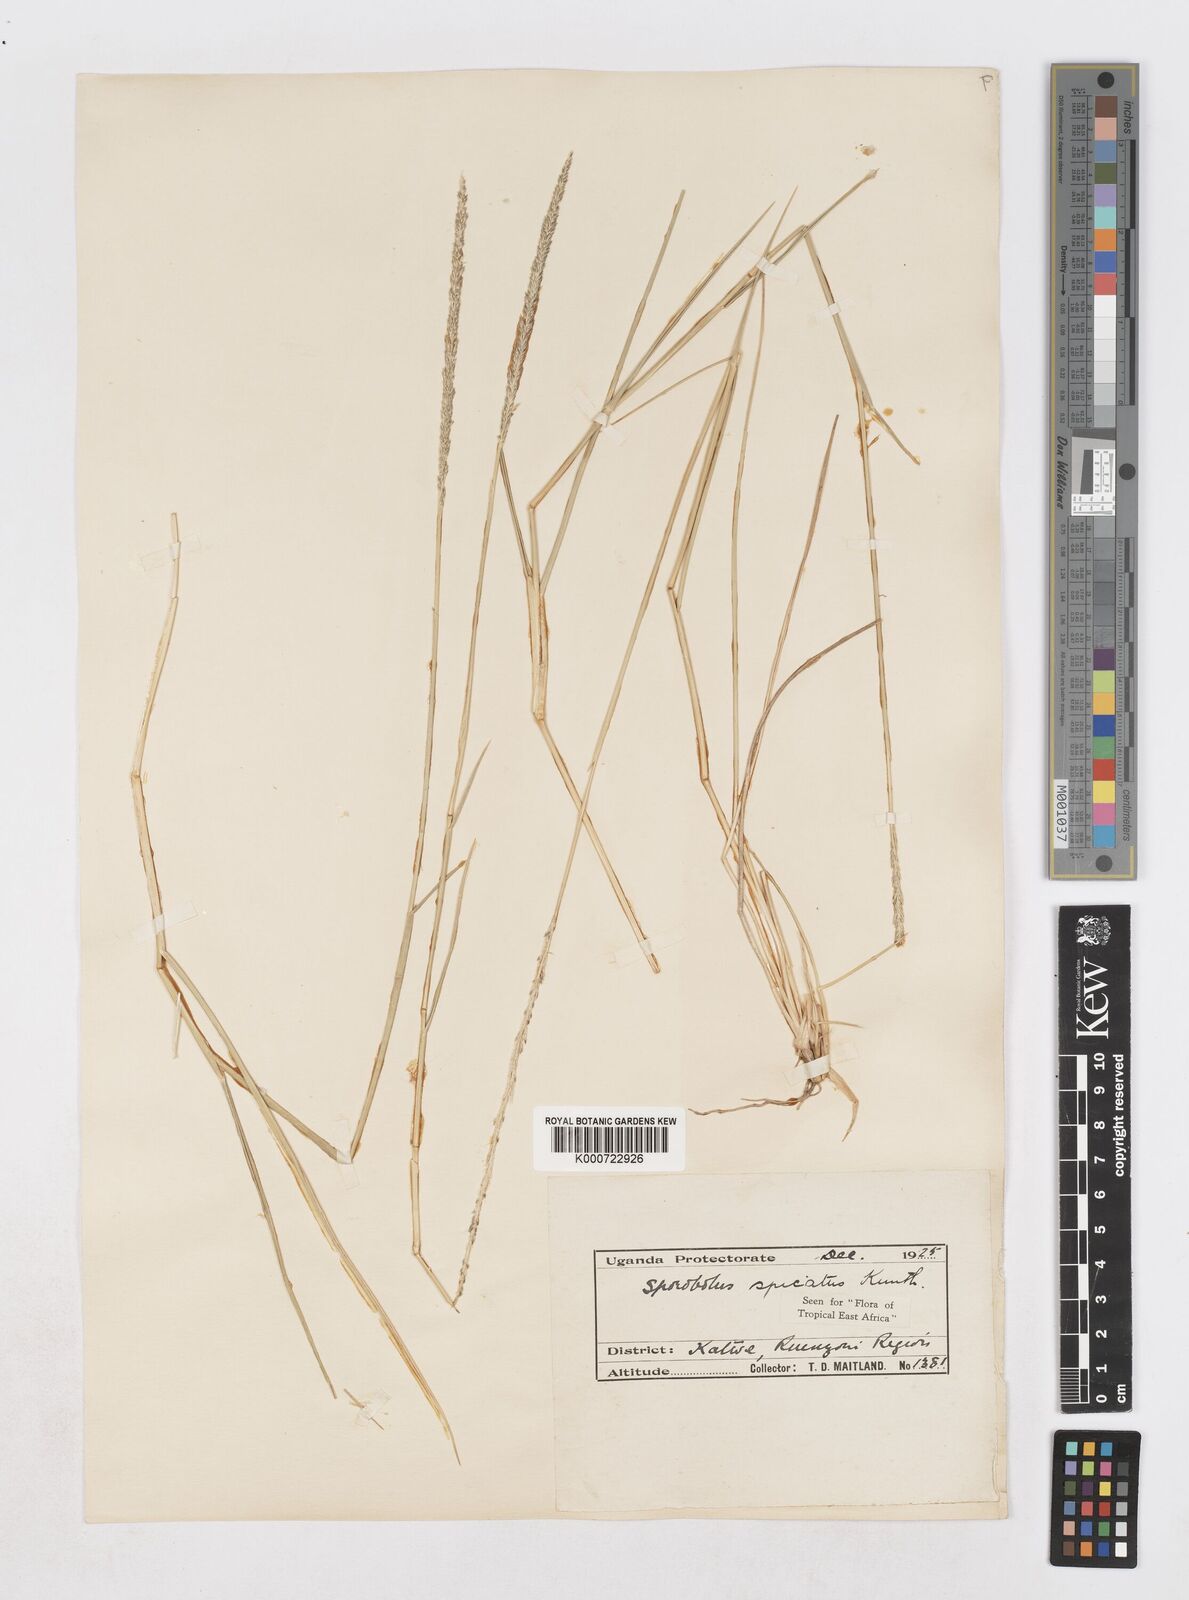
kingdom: Plantae
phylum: Tracheophyta
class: Liliopsida
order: Poales
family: Poaceae
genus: Sporobolus
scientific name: Sporobolus spicatus
